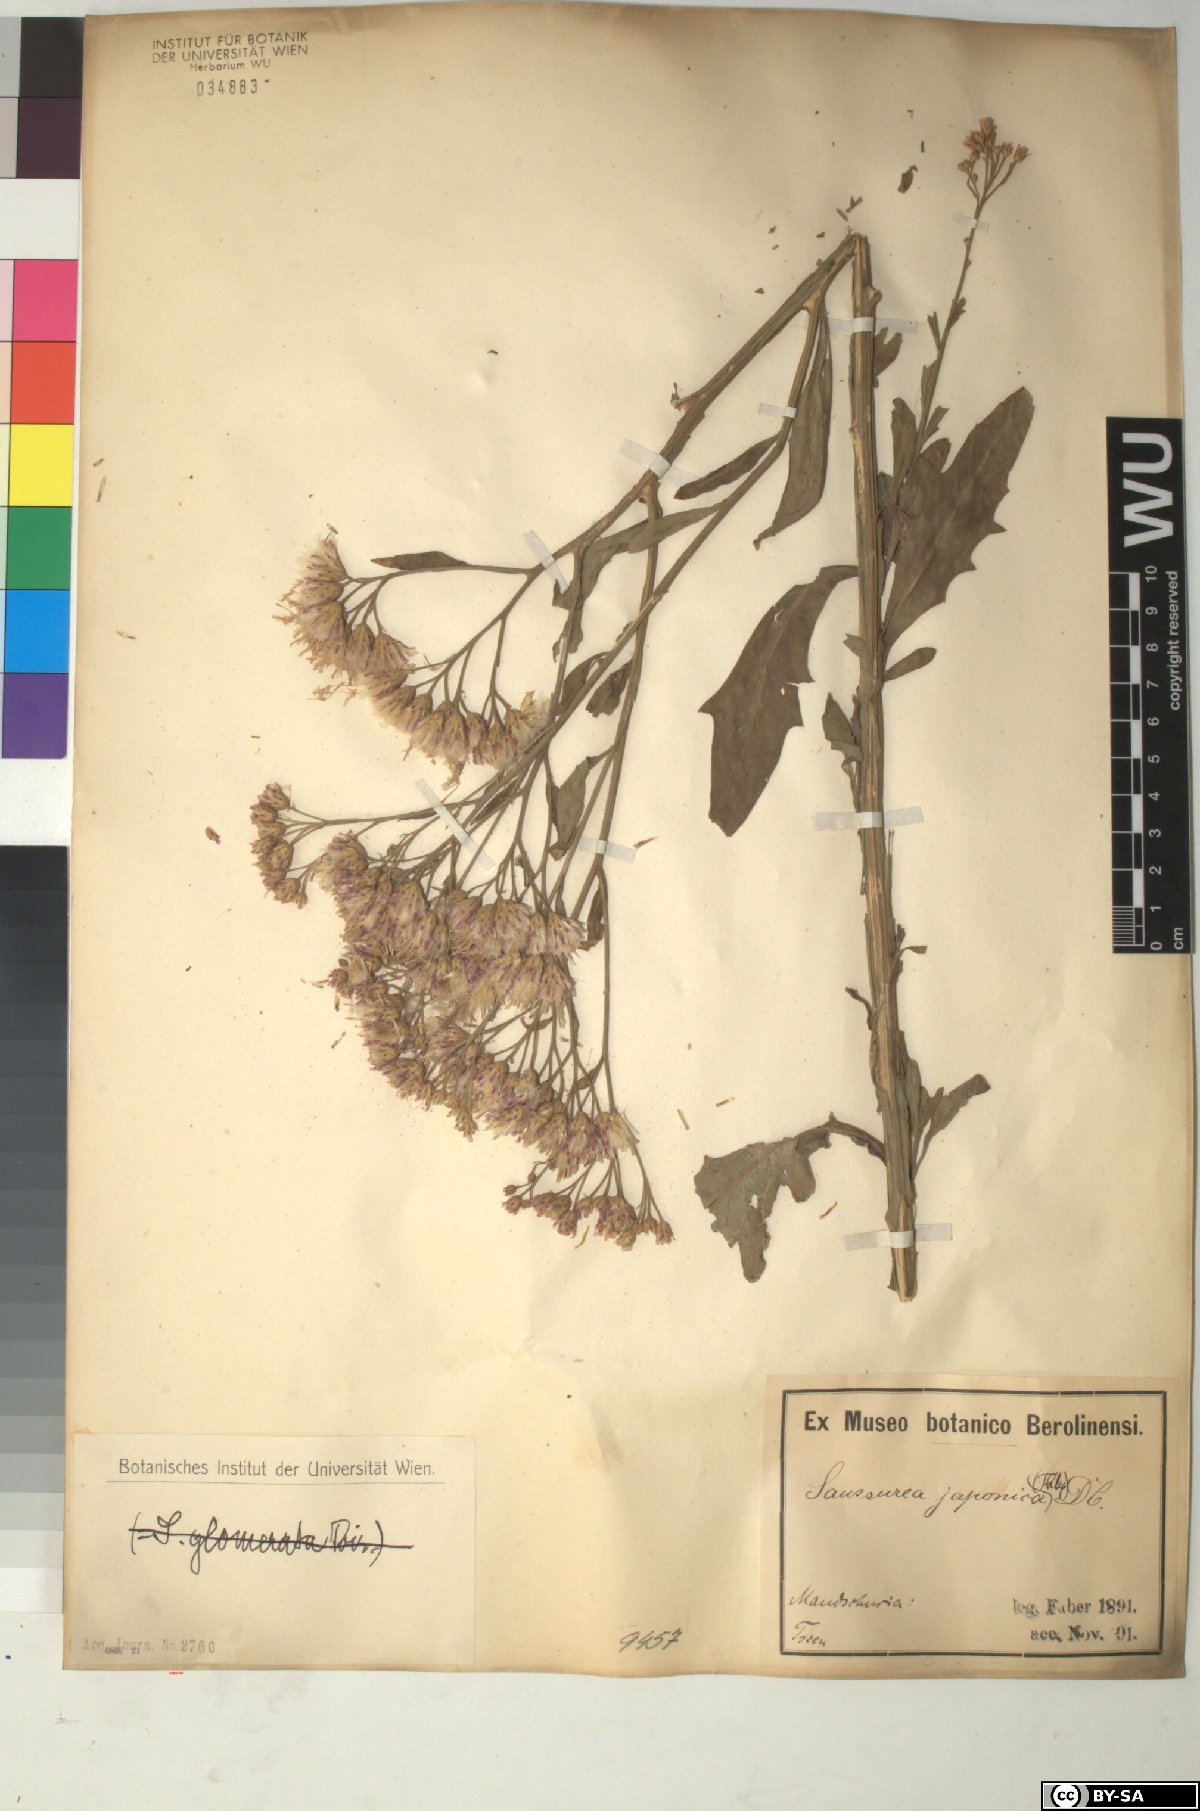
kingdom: Plantae
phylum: Tracheophyta
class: Magnoliopsida
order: Asterales
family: Asteraceae
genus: Saussurea
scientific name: Saussurea japonica
